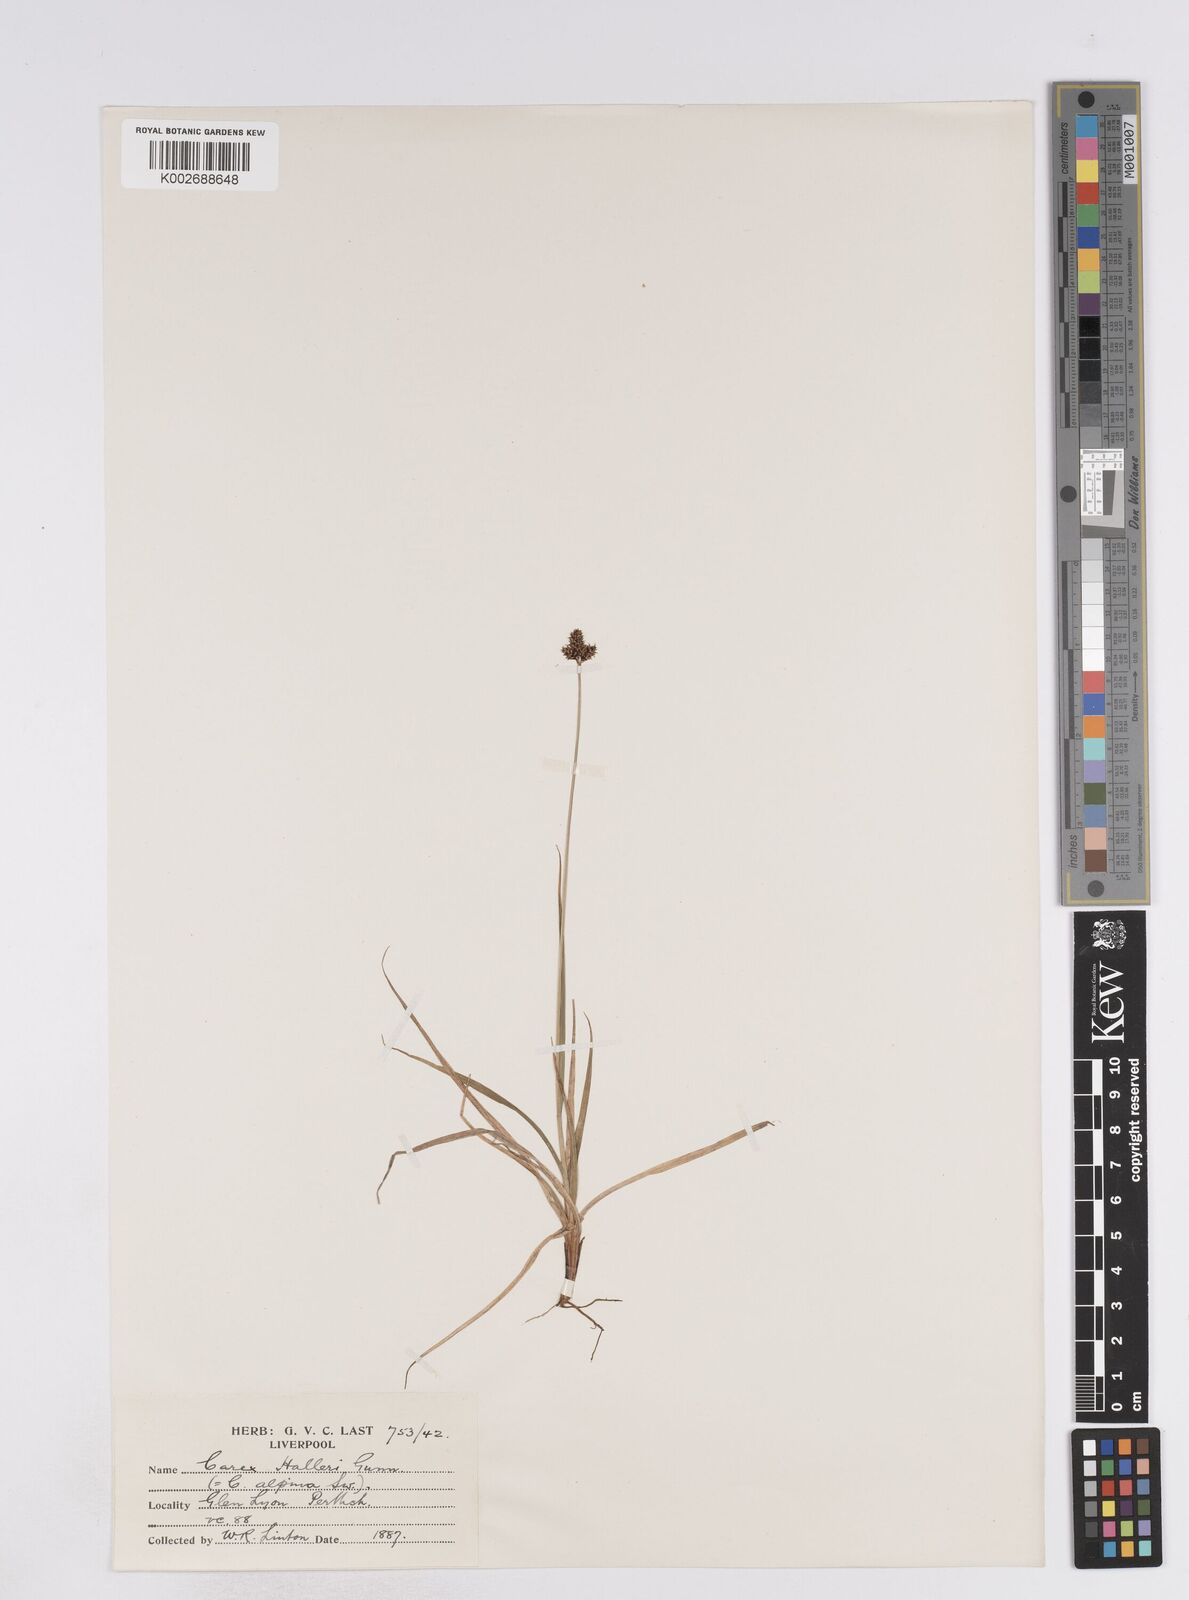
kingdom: Plantae
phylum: Tracheophyta
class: Liliopsida
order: Poales
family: Cyperaceae
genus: Carex
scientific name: Carex norvegica
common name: Close-headed alpine-sedge
